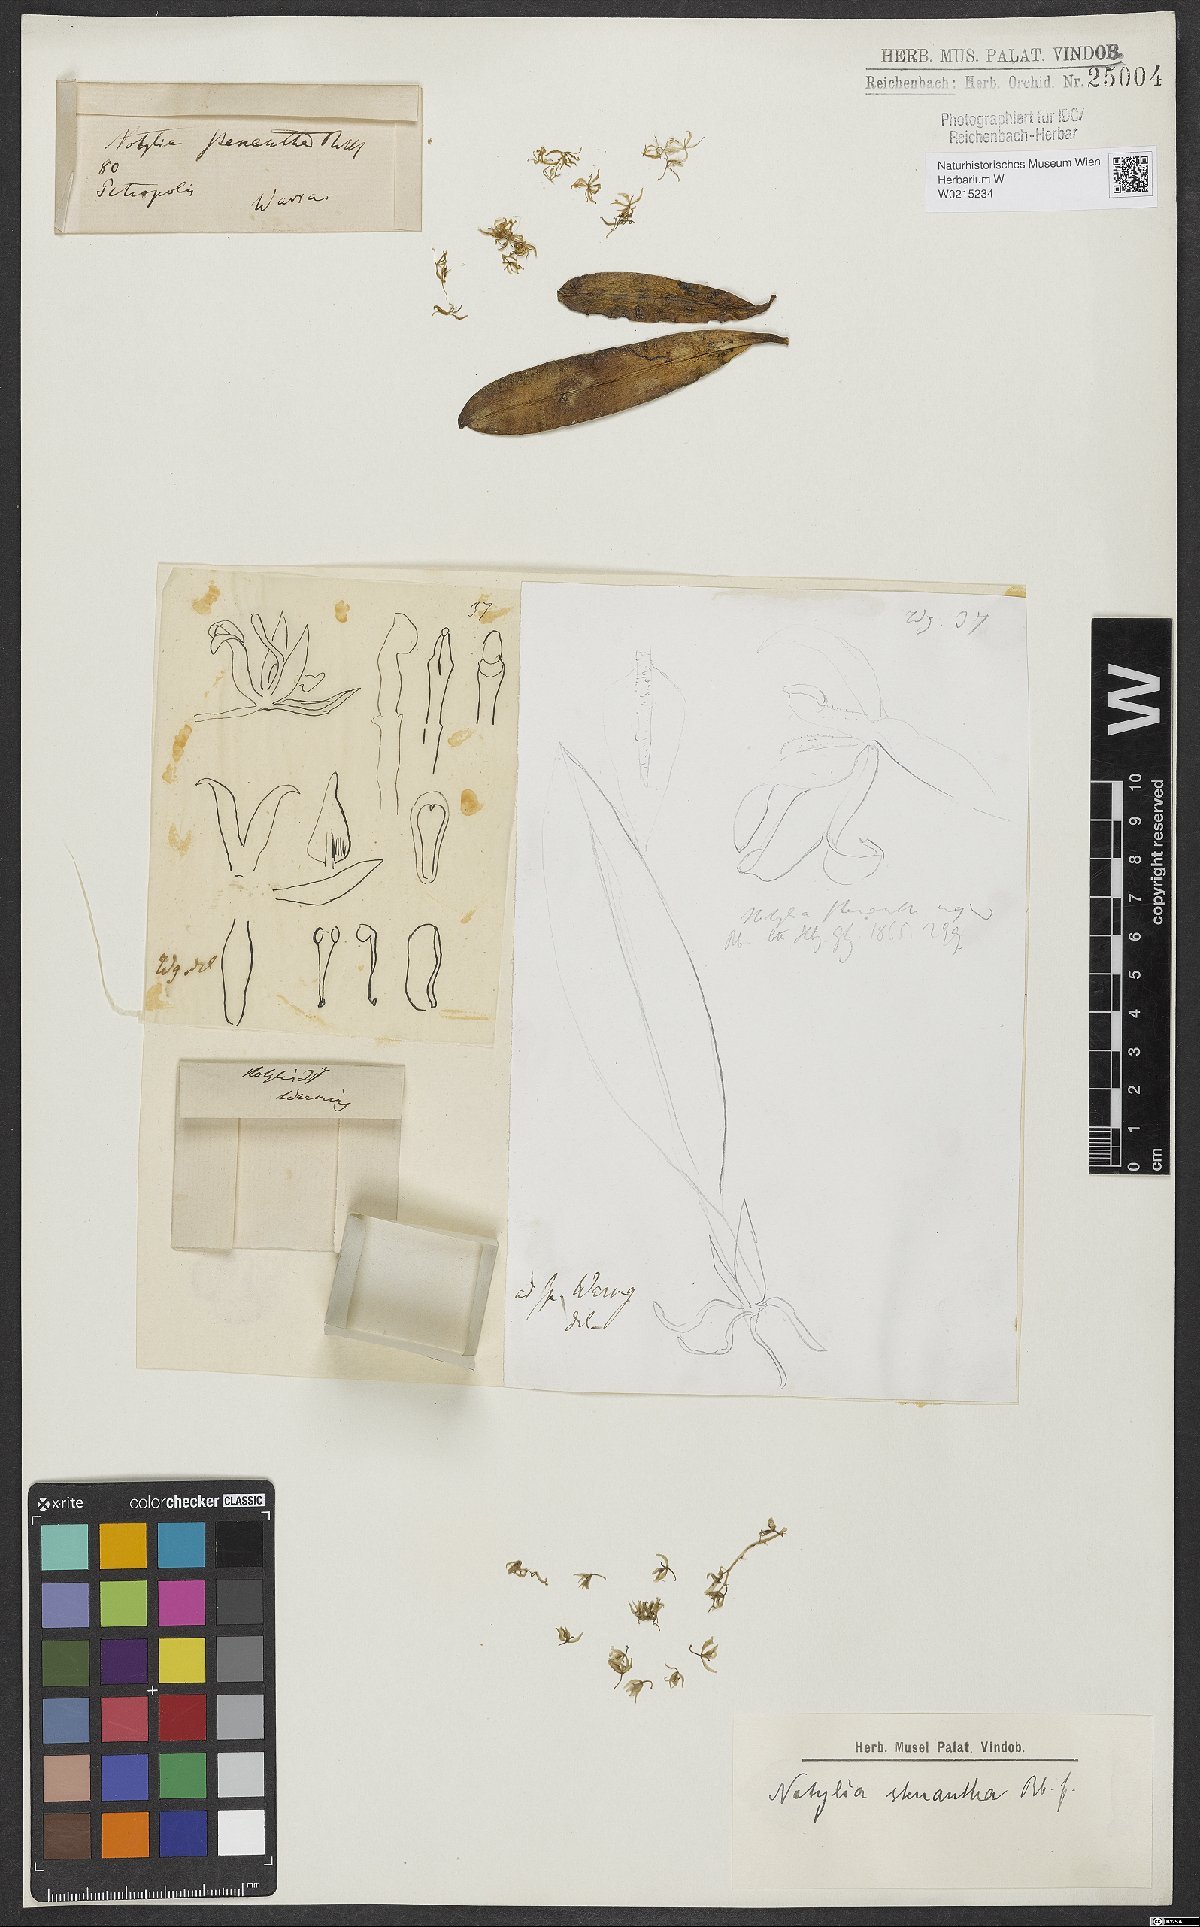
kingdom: Plantae
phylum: Tracheophyta
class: Liliopsida
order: Asparagales
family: Orchidaceae
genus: Notylia
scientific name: Notylia stenantha
